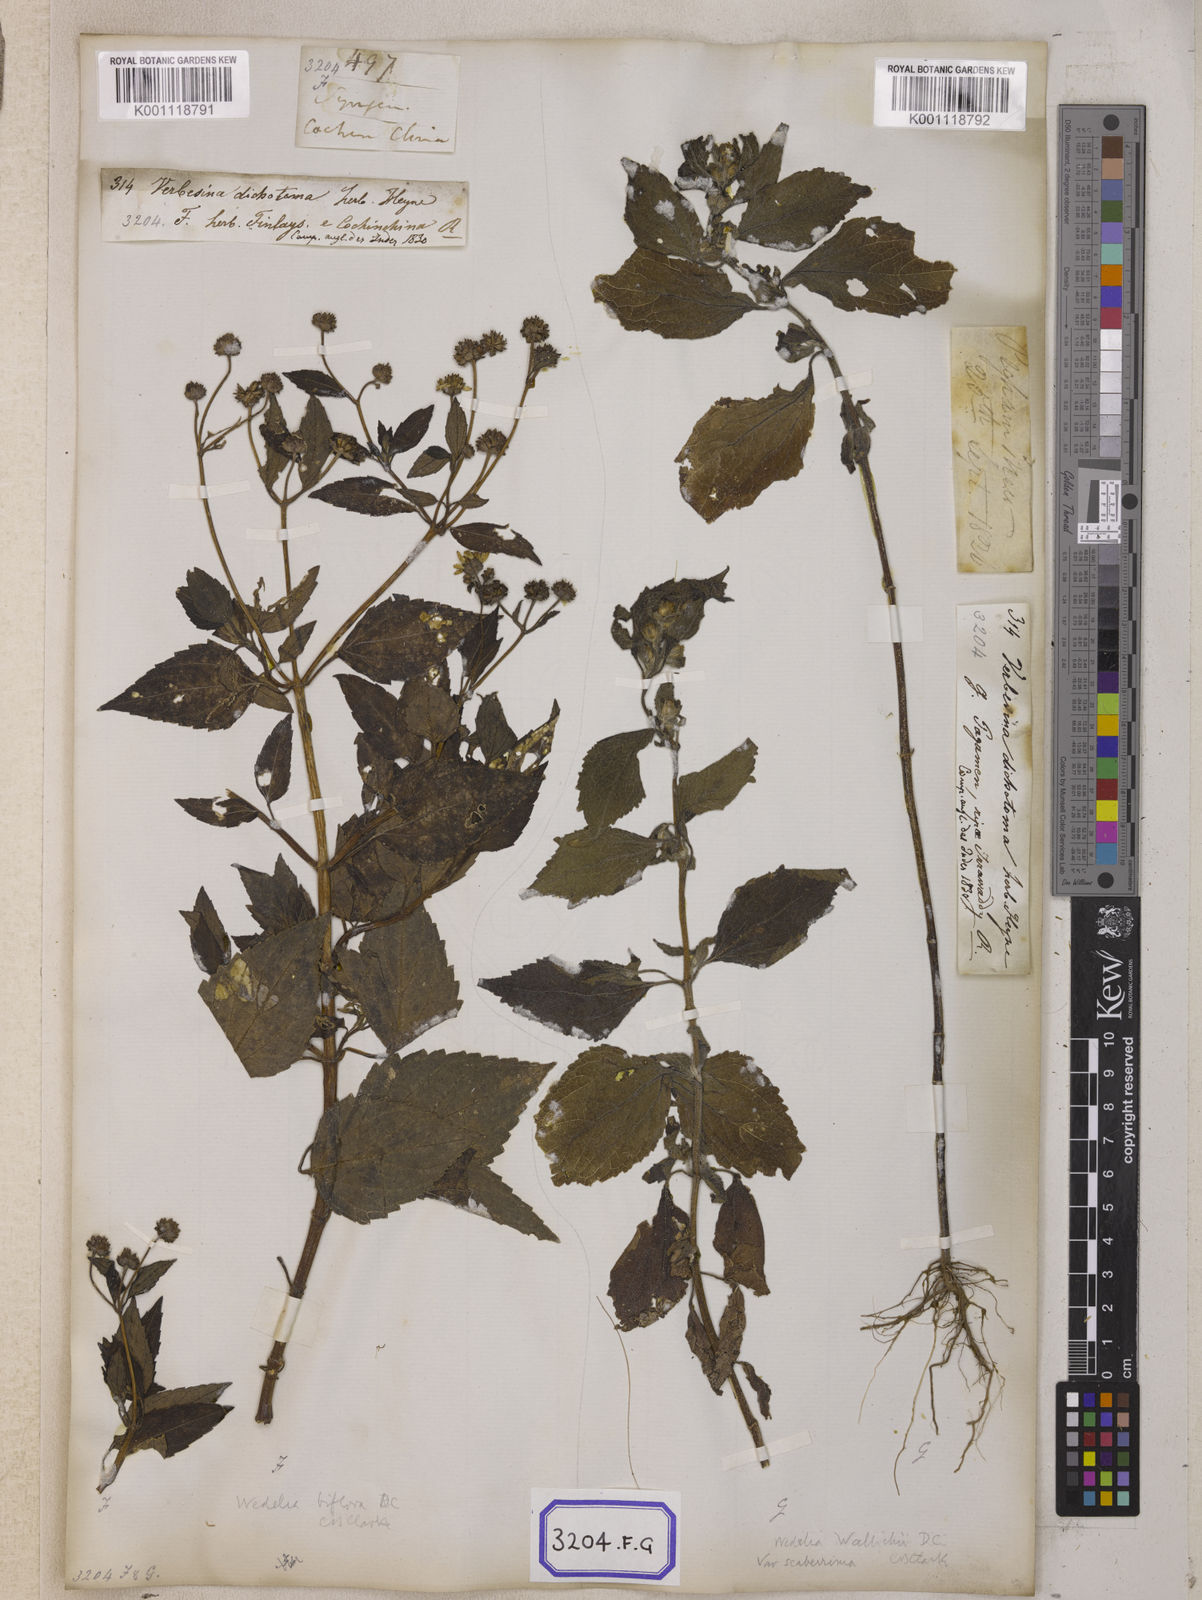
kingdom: Plantae
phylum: Tracheophyta
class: Magnoliopsida
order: Asterales
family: Asteraceae
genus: Blainvillea
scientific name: Blainvillea acmella
